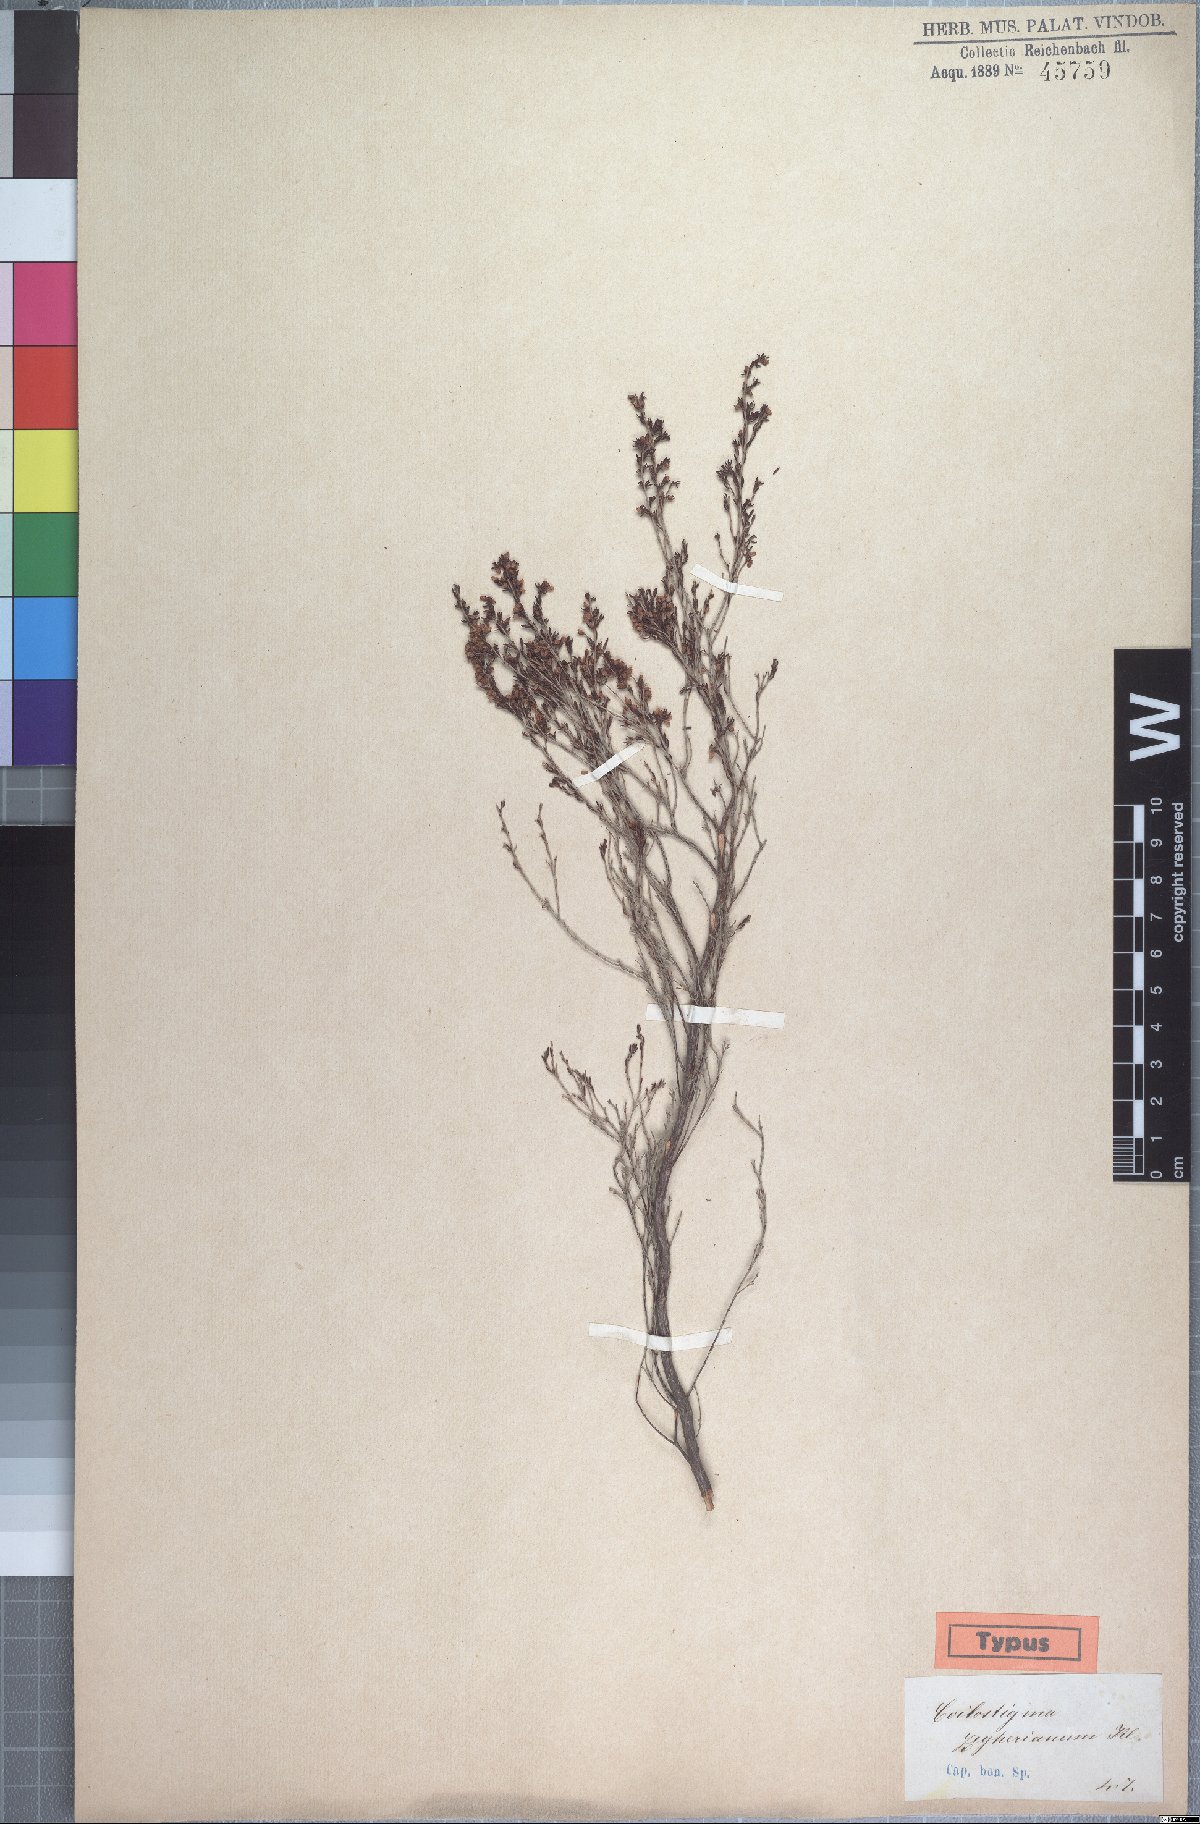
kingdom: Plantae
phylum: Tracheophyta
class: Magnoliopsida
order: Ericales
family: Ericaceae
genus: Erica
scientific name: Erica zeyheriana
